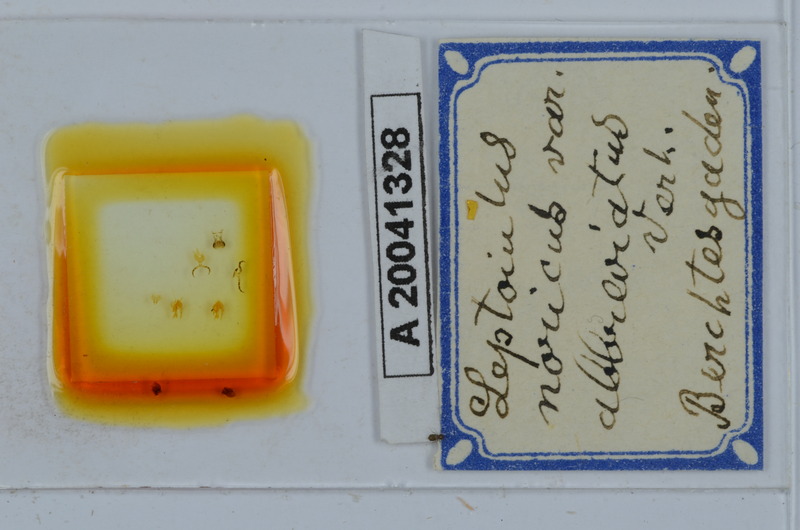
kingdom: Animalia
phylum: Arthropoda
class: Diplopoda
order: Julida
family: Julidae
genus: Leptoiulus
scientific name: Leptoiulus noricus
